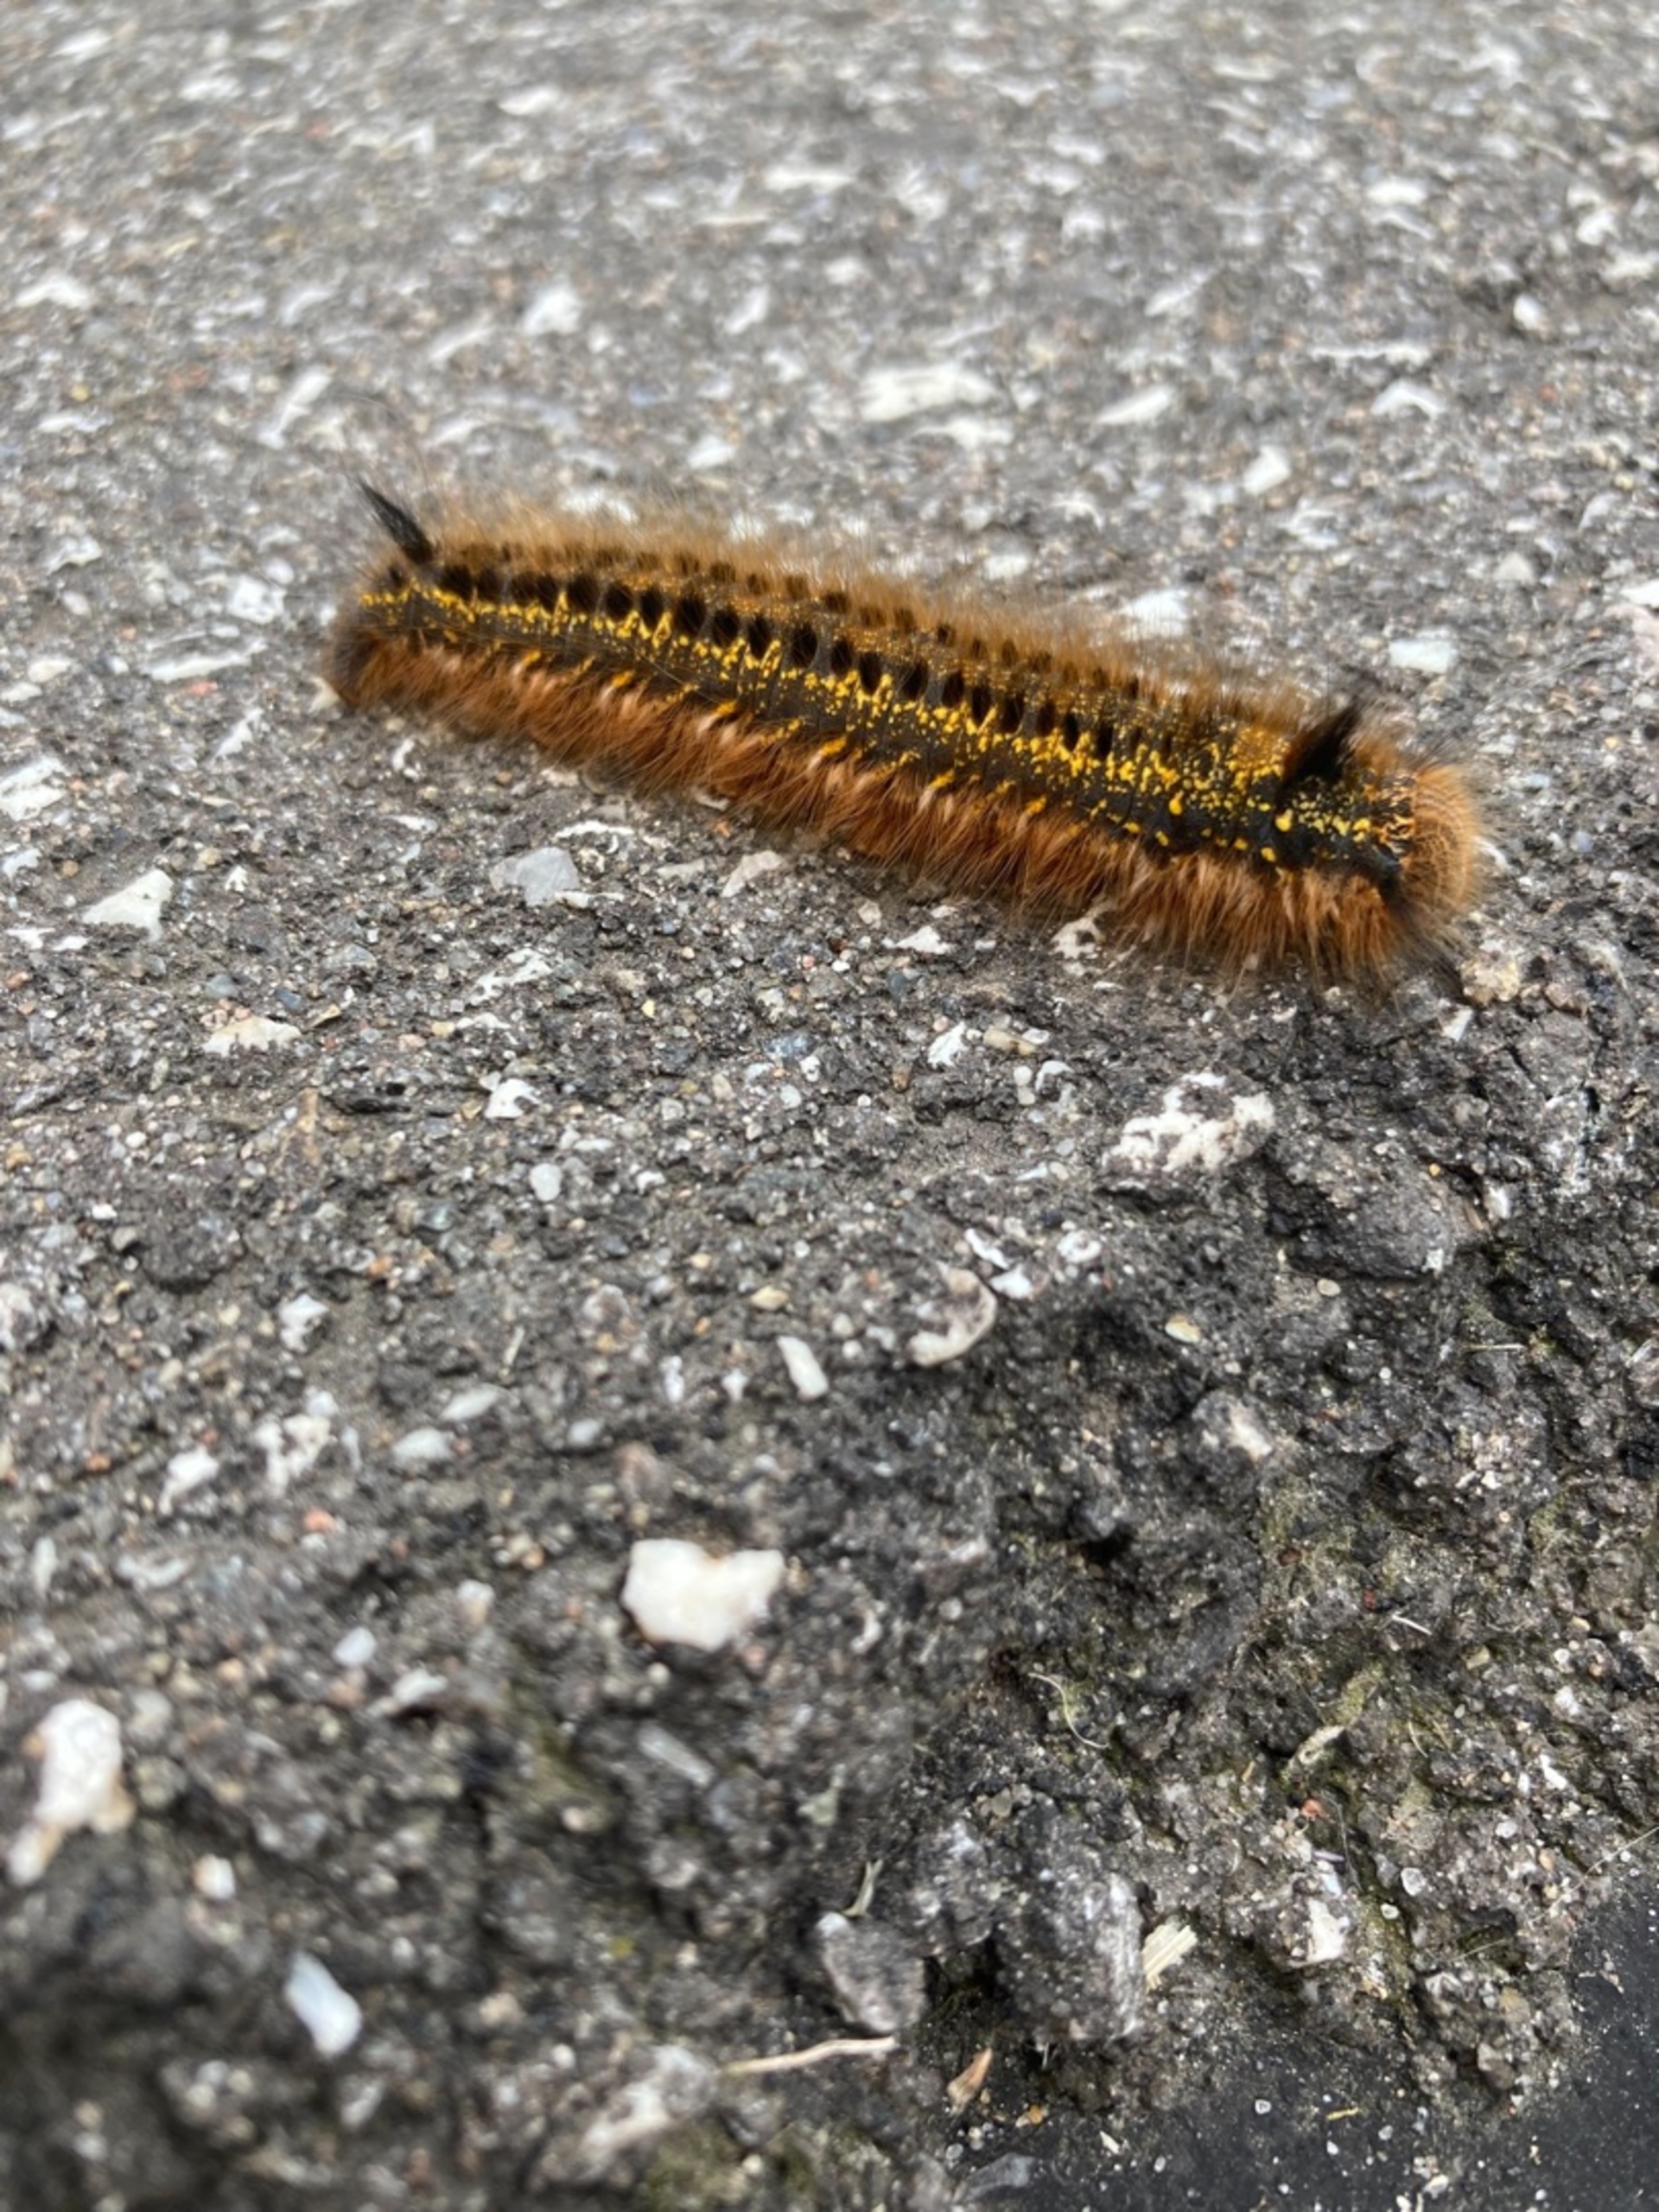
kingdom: Animalia
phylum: Arthropoda
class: Insecta
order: Lepidoptera
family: Lasiocampidae
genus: Euthrix
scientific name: Euthrix potatoria
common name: Græsspinder
